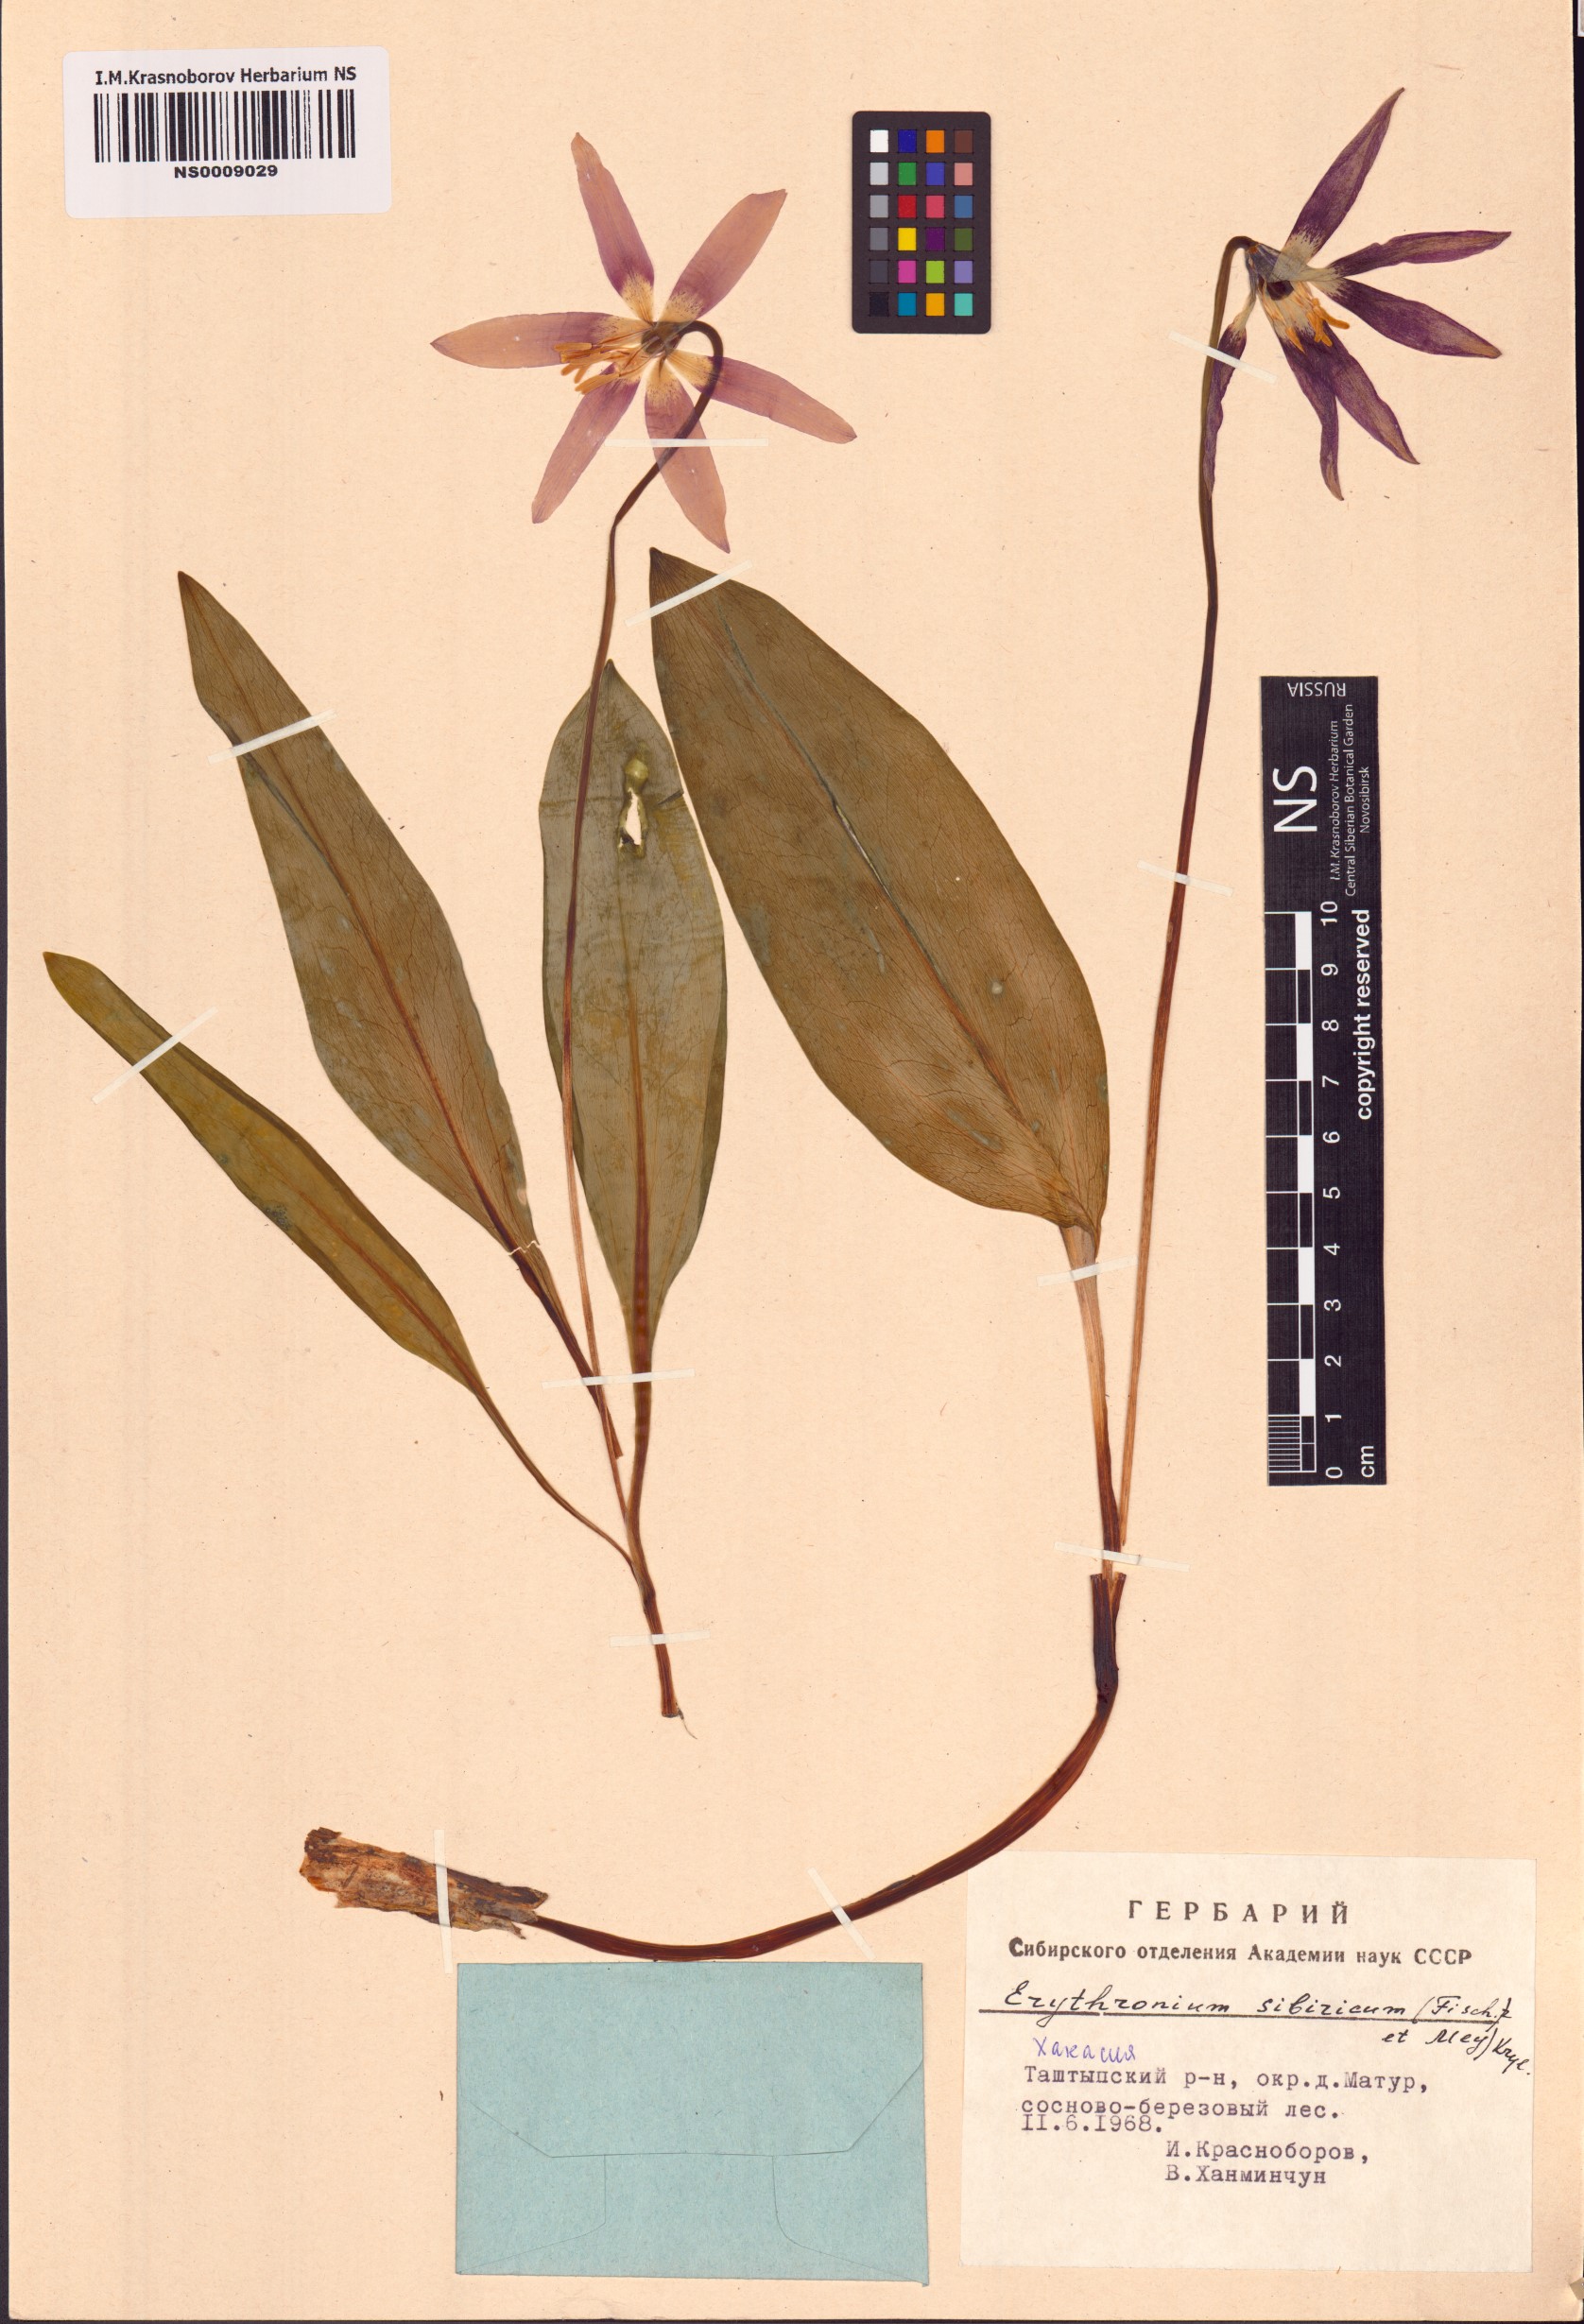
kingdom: Plantae
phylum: Tracheophyta
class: Liliopsida
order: Liliales
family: Liliaceae
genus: Erythronium
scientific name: Erythronium sibiricum
